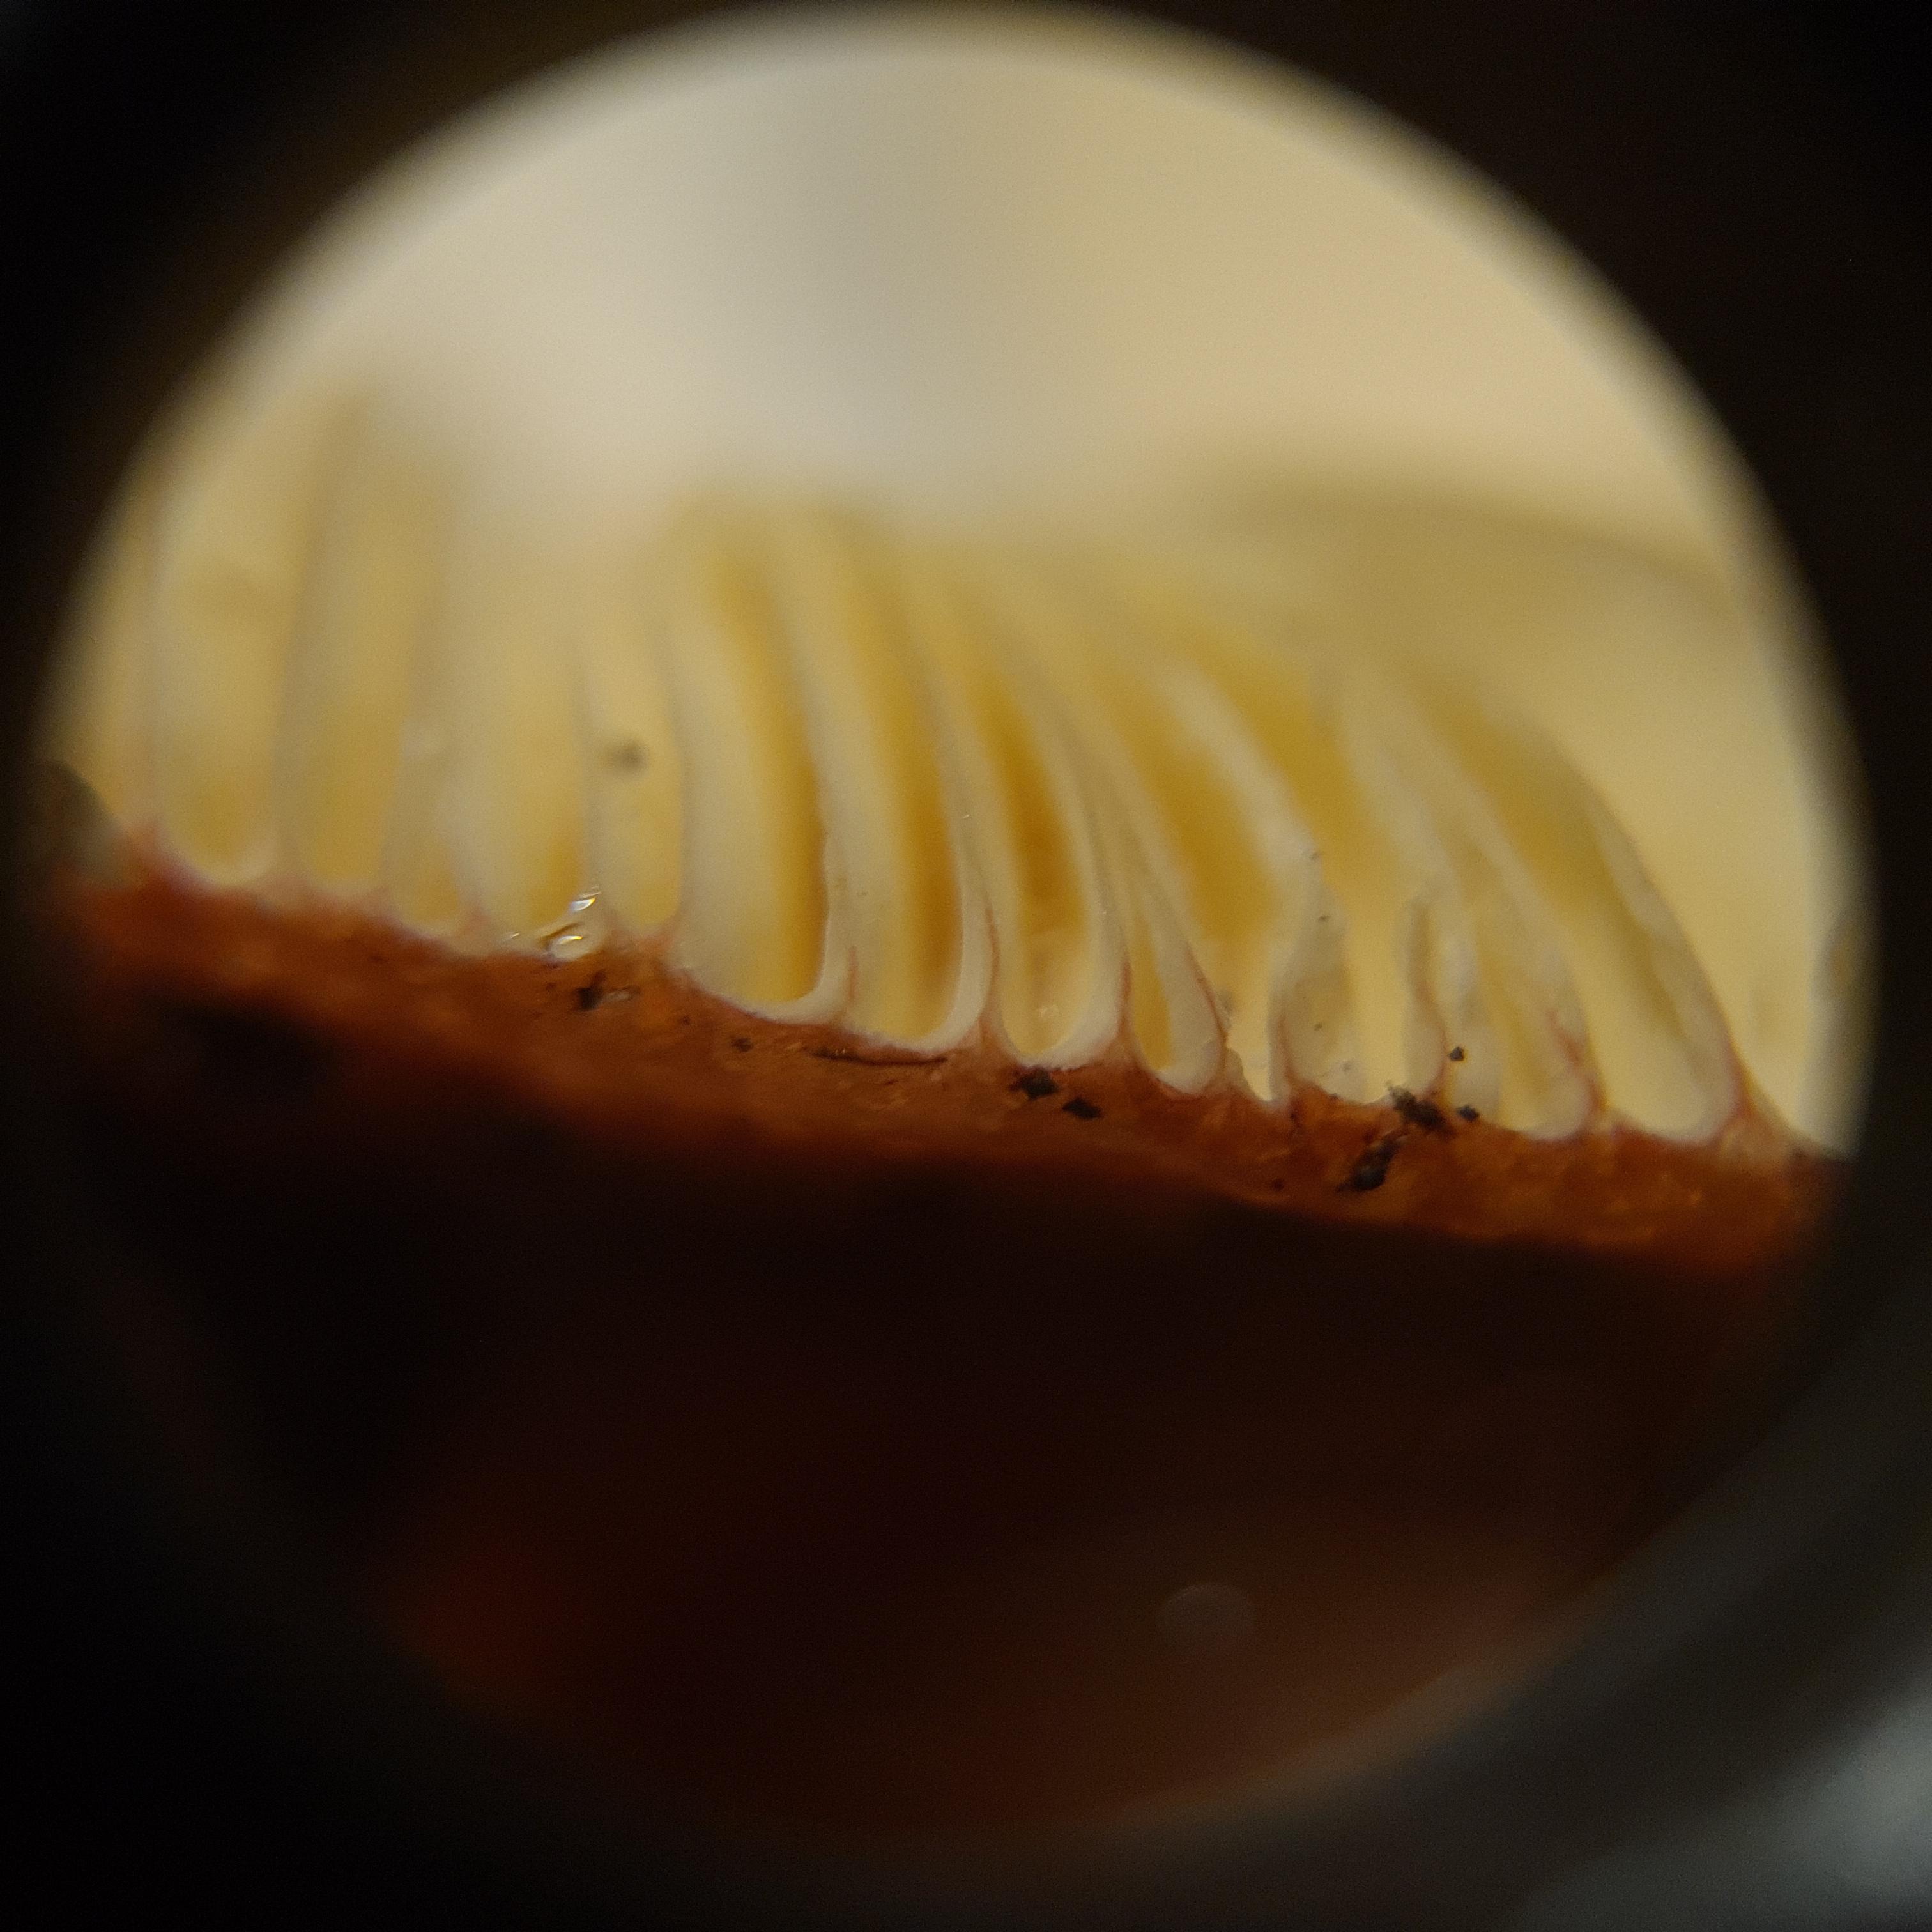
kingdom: Fungi
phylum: Basidiomycota
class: Agaricomycetes
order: Russulales
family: Russulaceae
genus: Russula
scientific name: Russula velenovskyi
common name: orangerød skørhat
